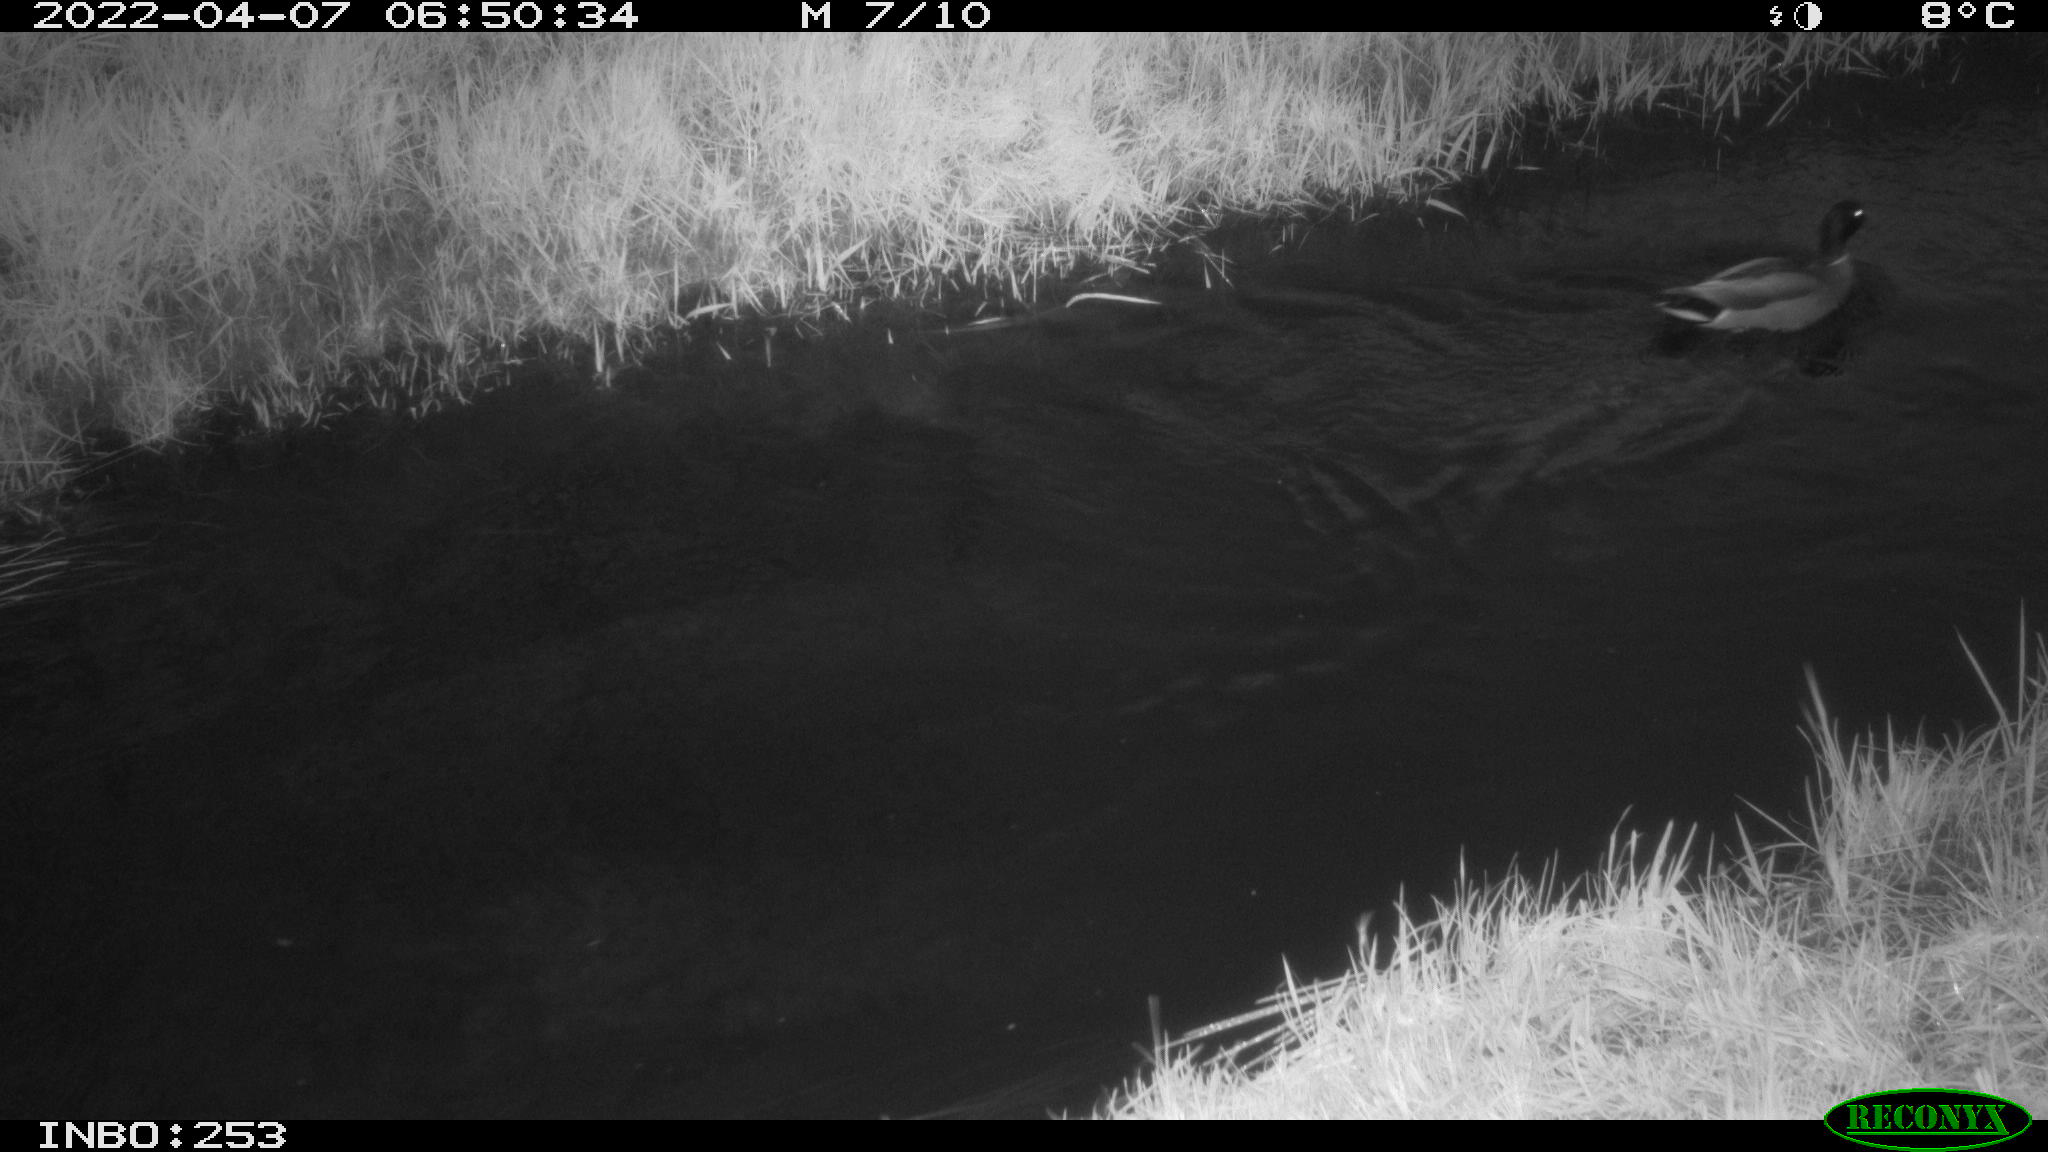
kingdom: Animalia
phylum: Chordata
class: Aves
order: Anseriformes
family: Anatidae
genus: Anas
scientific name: Anas platyrhynchos
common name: Mallard
